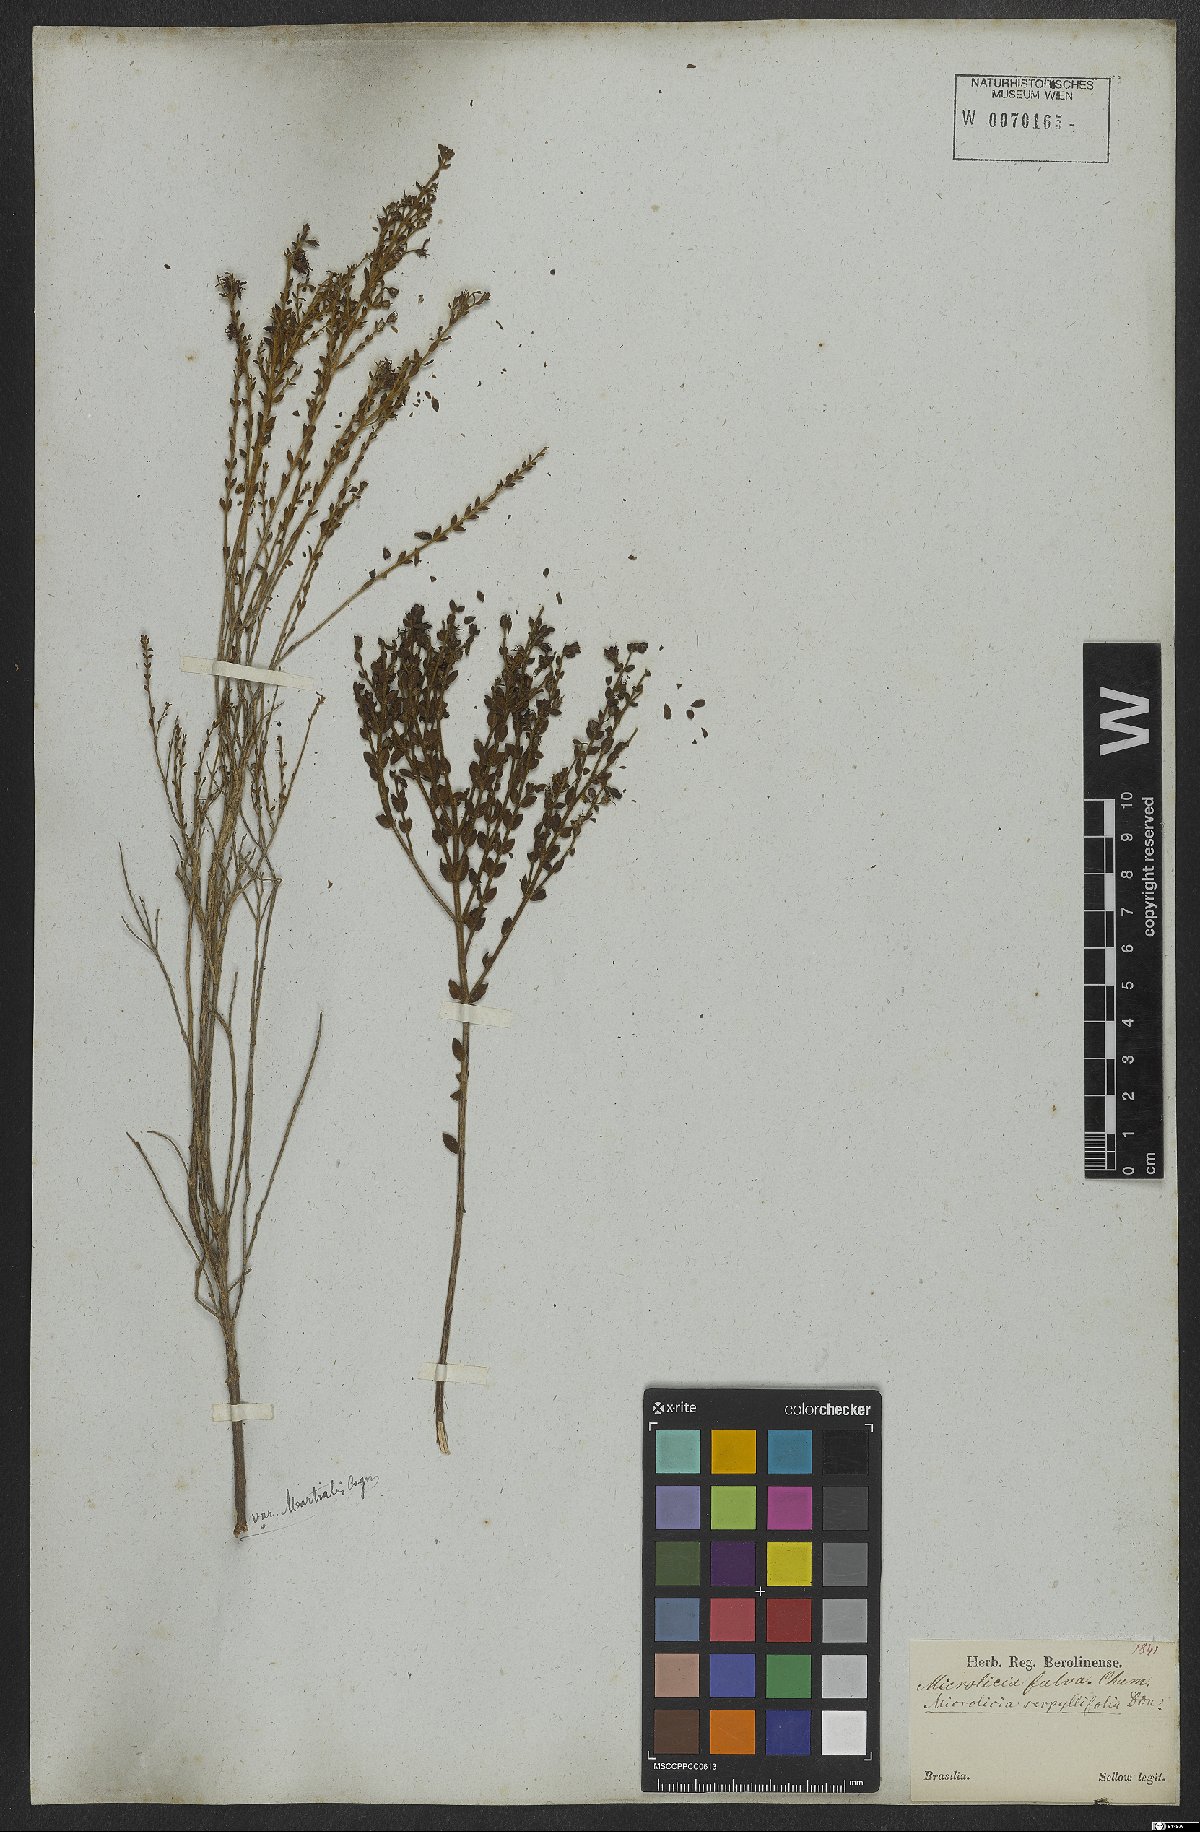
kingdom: Plantae
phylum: Tracheophyta
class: Magnoliopsida
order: Myrtales
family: Melastomataceae
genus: Microlicia
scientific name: Microlicia fulva
